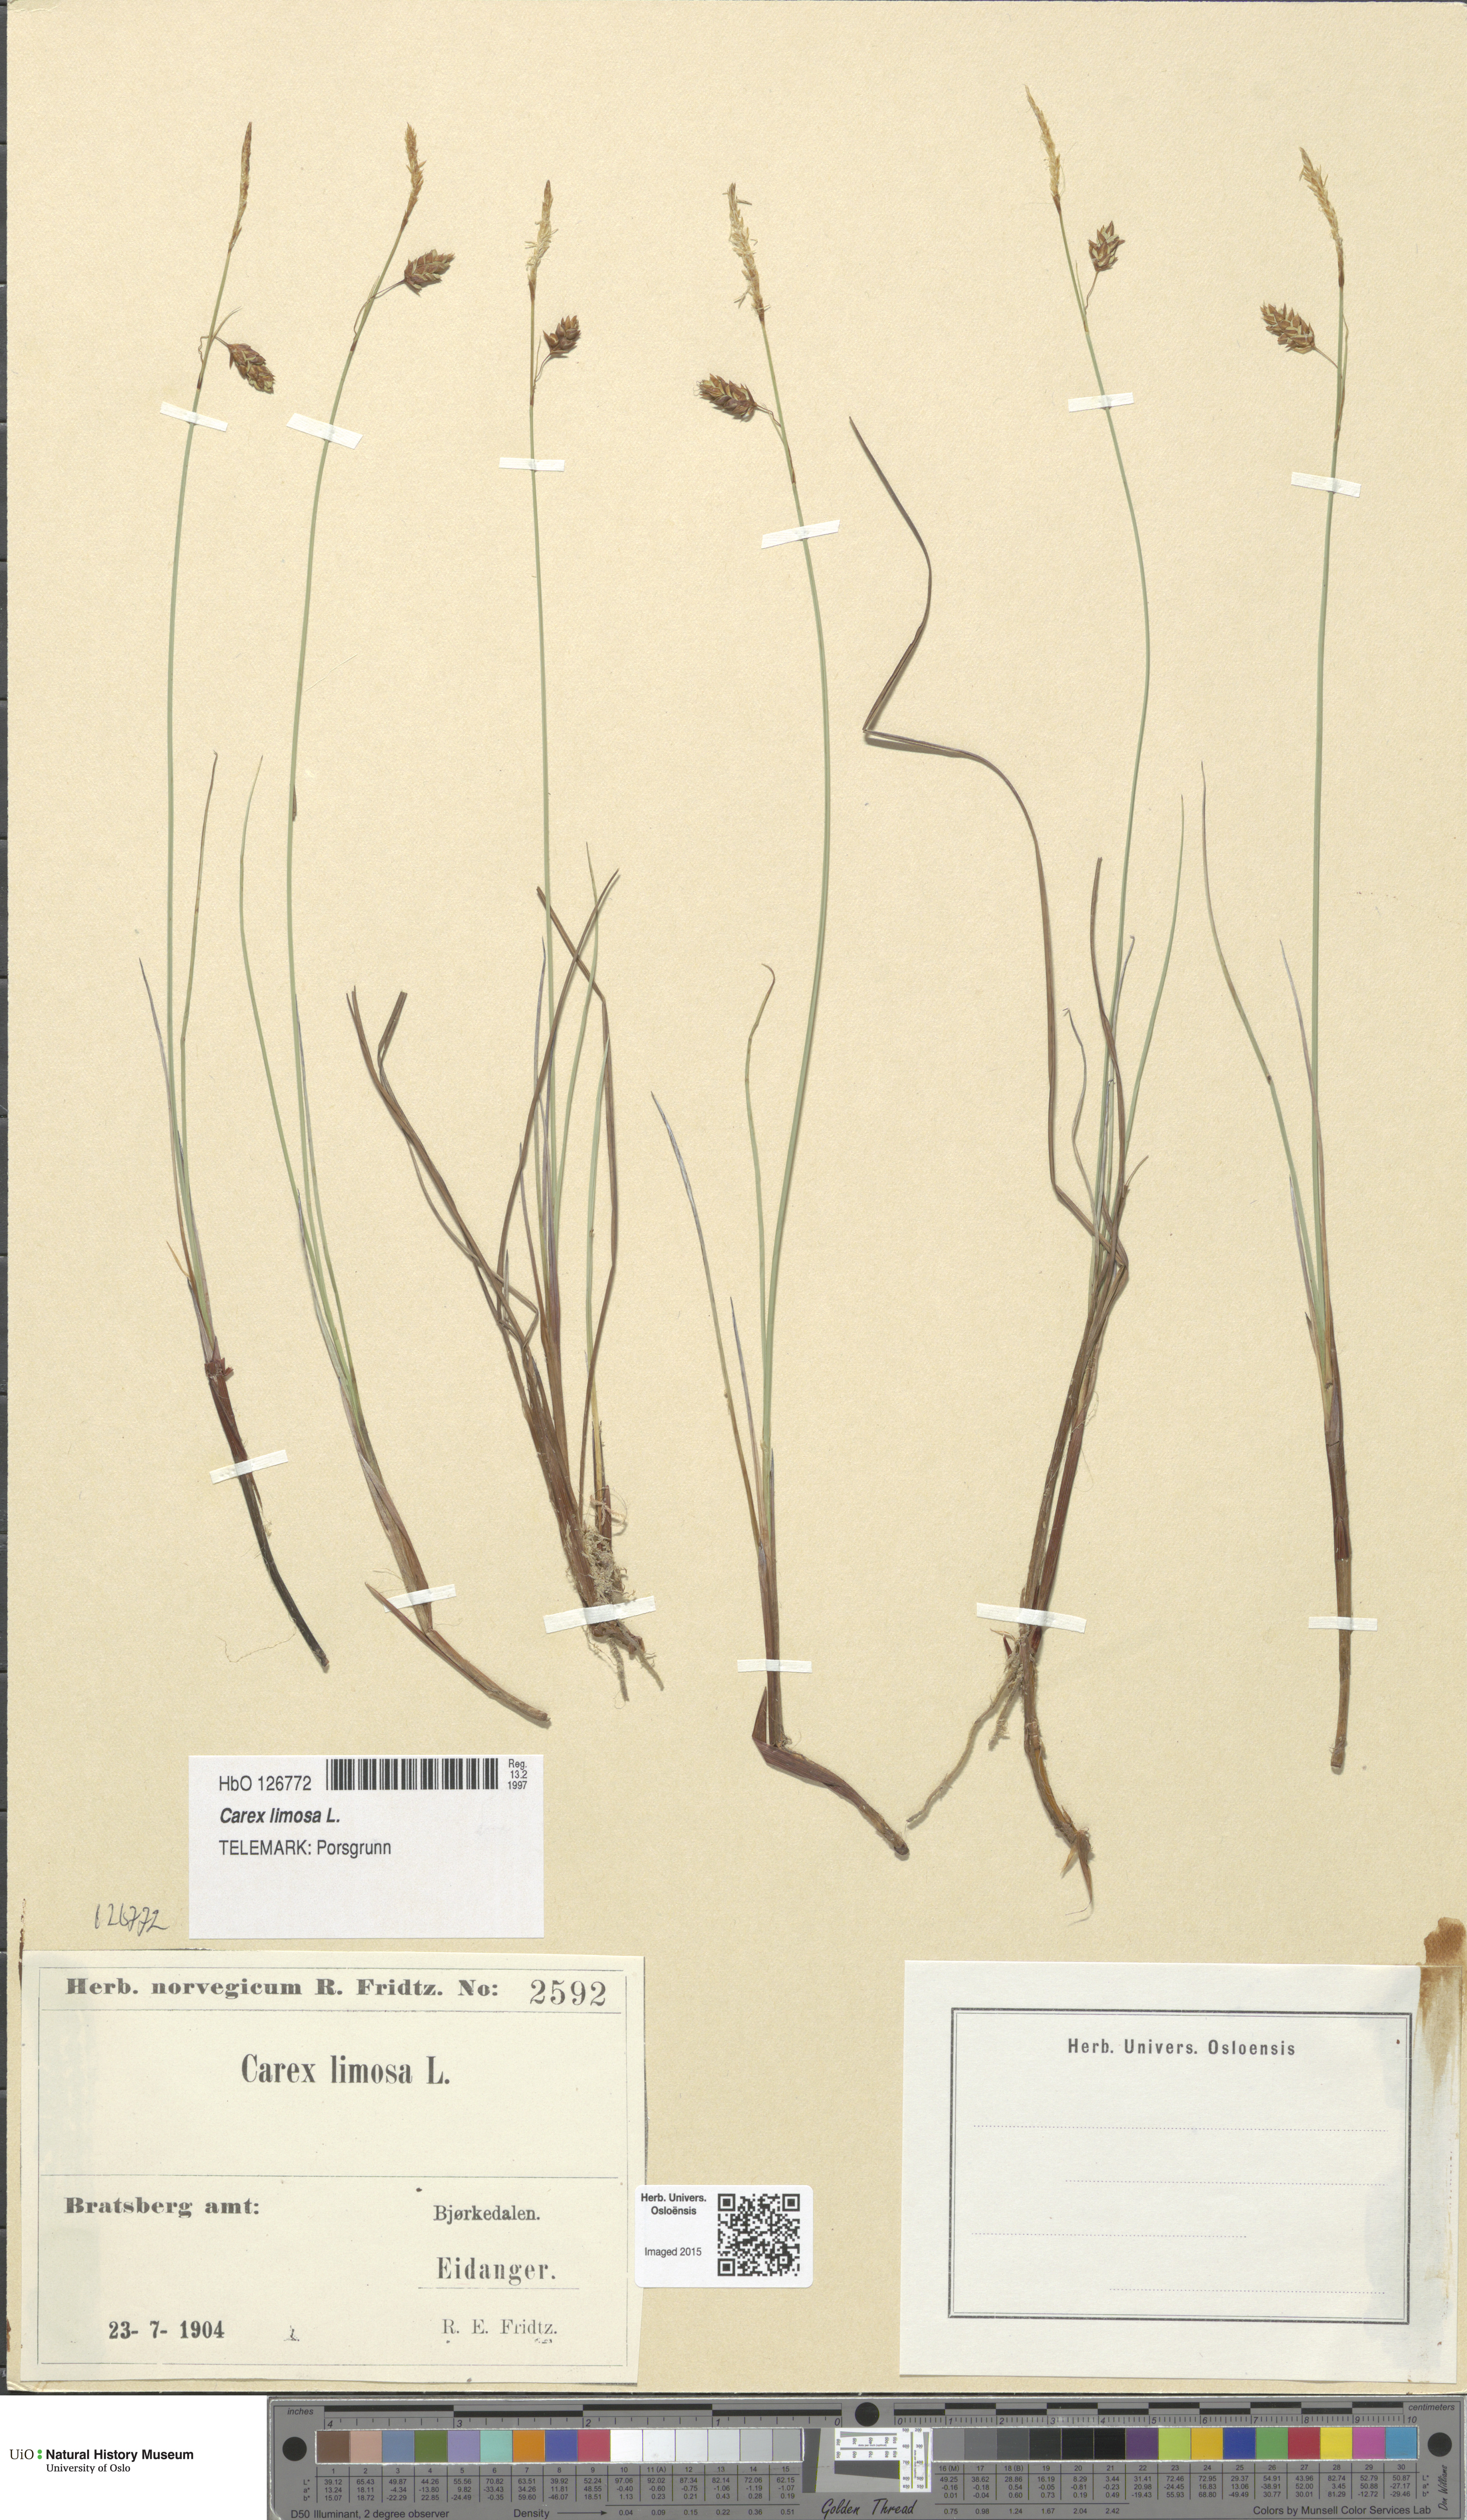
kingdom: Plantae
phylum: Tracheophyta
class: Liliopsida
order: Poales
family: Cyperaceae
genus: Carex
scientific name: Carex limosa
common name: Bog sedge
